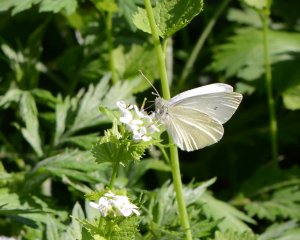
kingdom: Animalia
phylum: Arthropoda
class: Insecta
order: Lepidoptera
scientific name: Lepidoptera
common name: Butterflies
